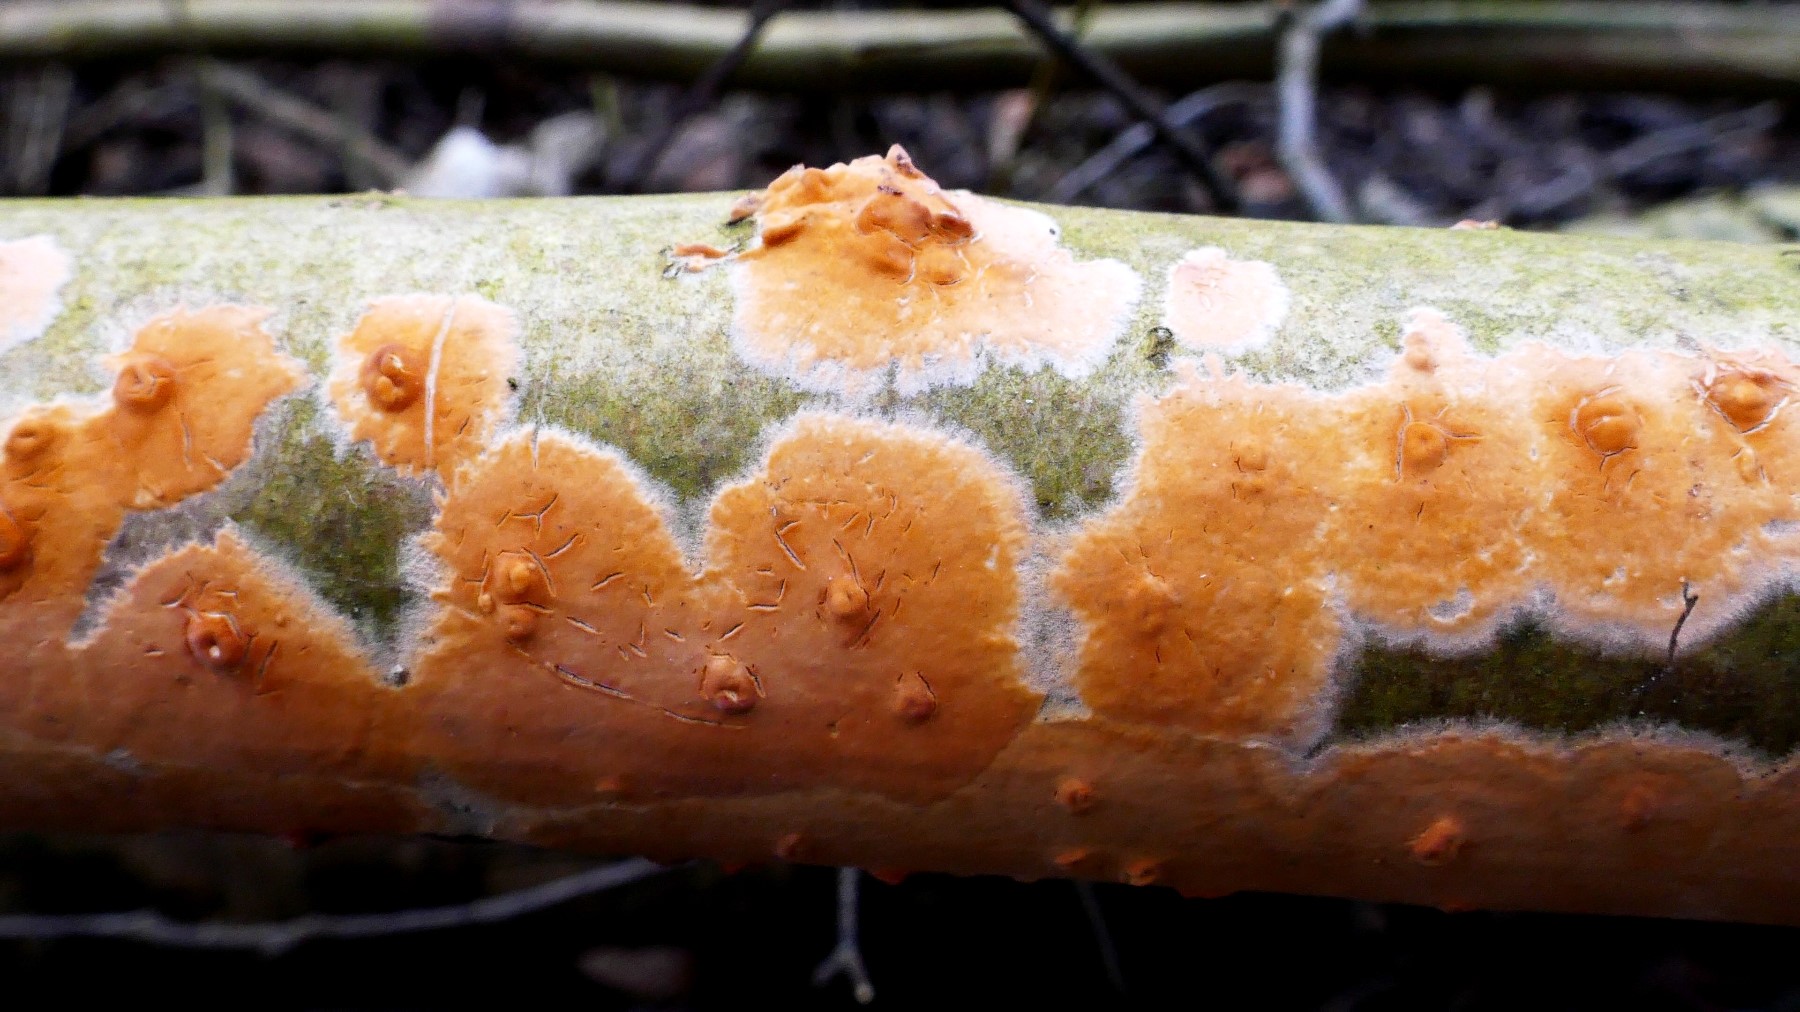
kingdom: Fungi
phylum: Basidiomycota
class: Agaricomycetes
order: Russulales
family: Peniophoraceae
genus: Peniophora
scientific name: Peniophora incarnata
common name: laksefarvet voksskind
